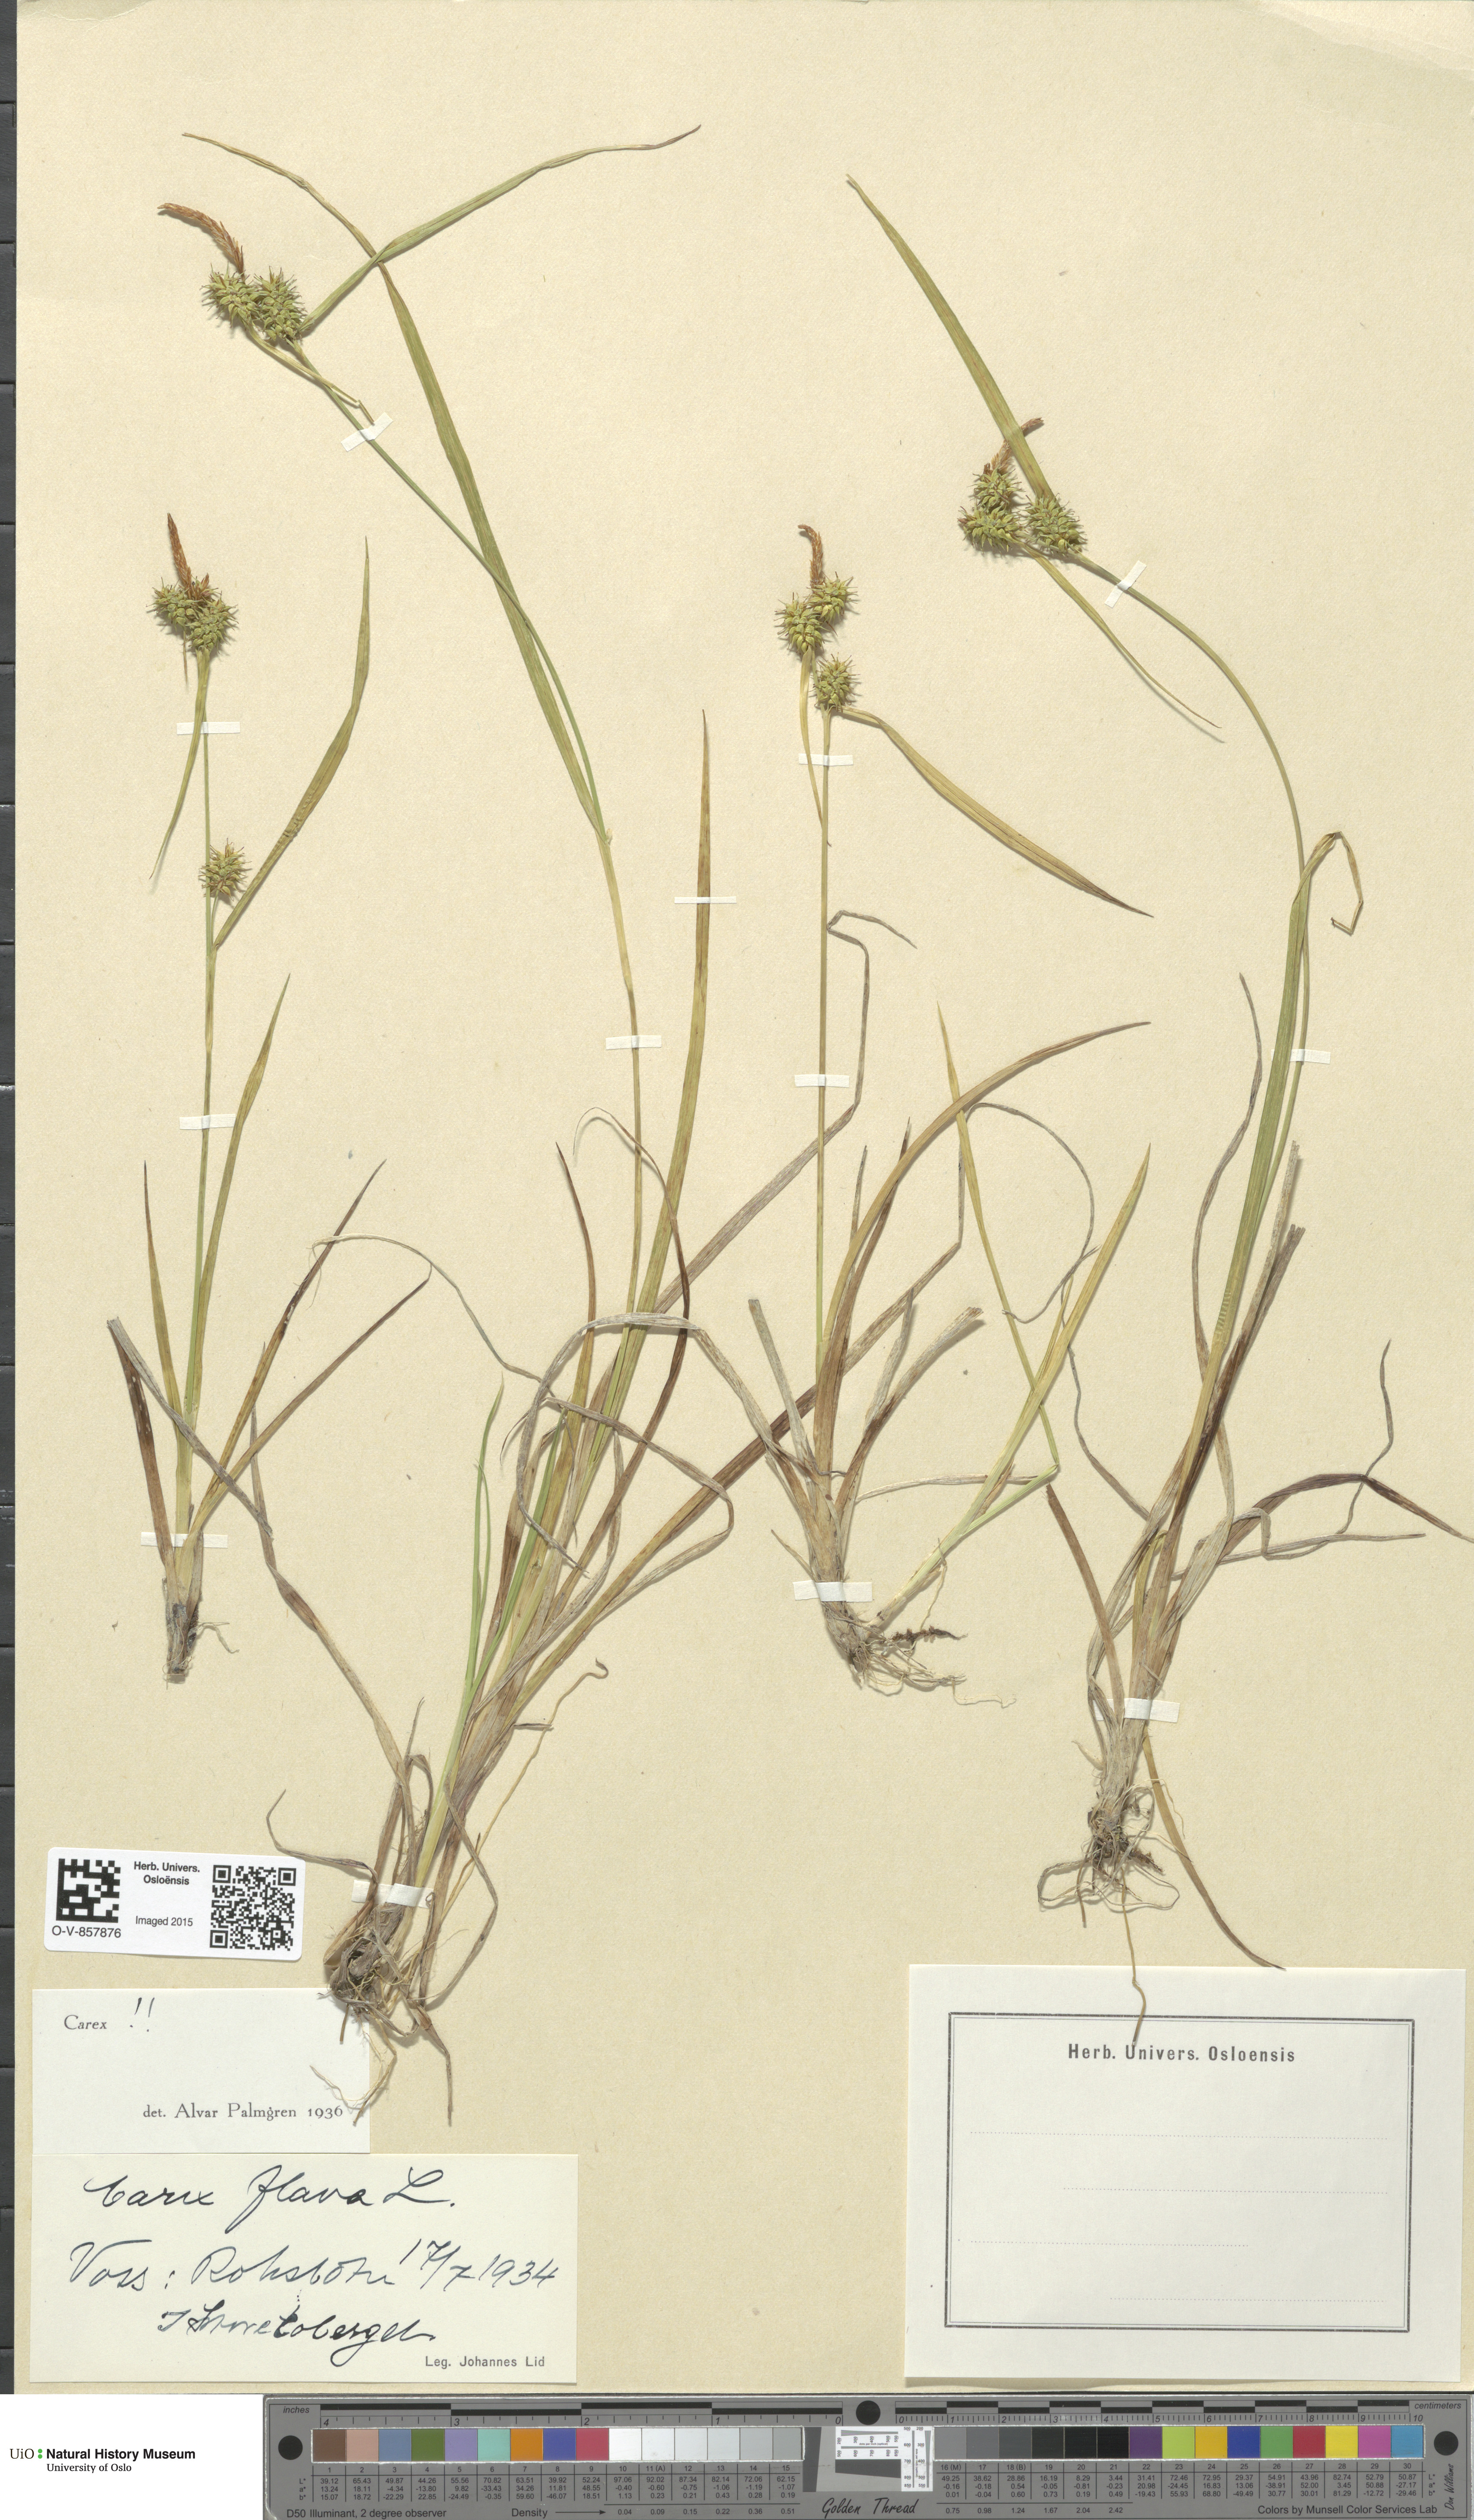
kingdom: Plantae
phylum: Tracheophyta
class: Liliopsida
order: Poales
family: Cyperaceae
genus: Carex
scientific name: Carex flava
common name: Large yellow-sedge
